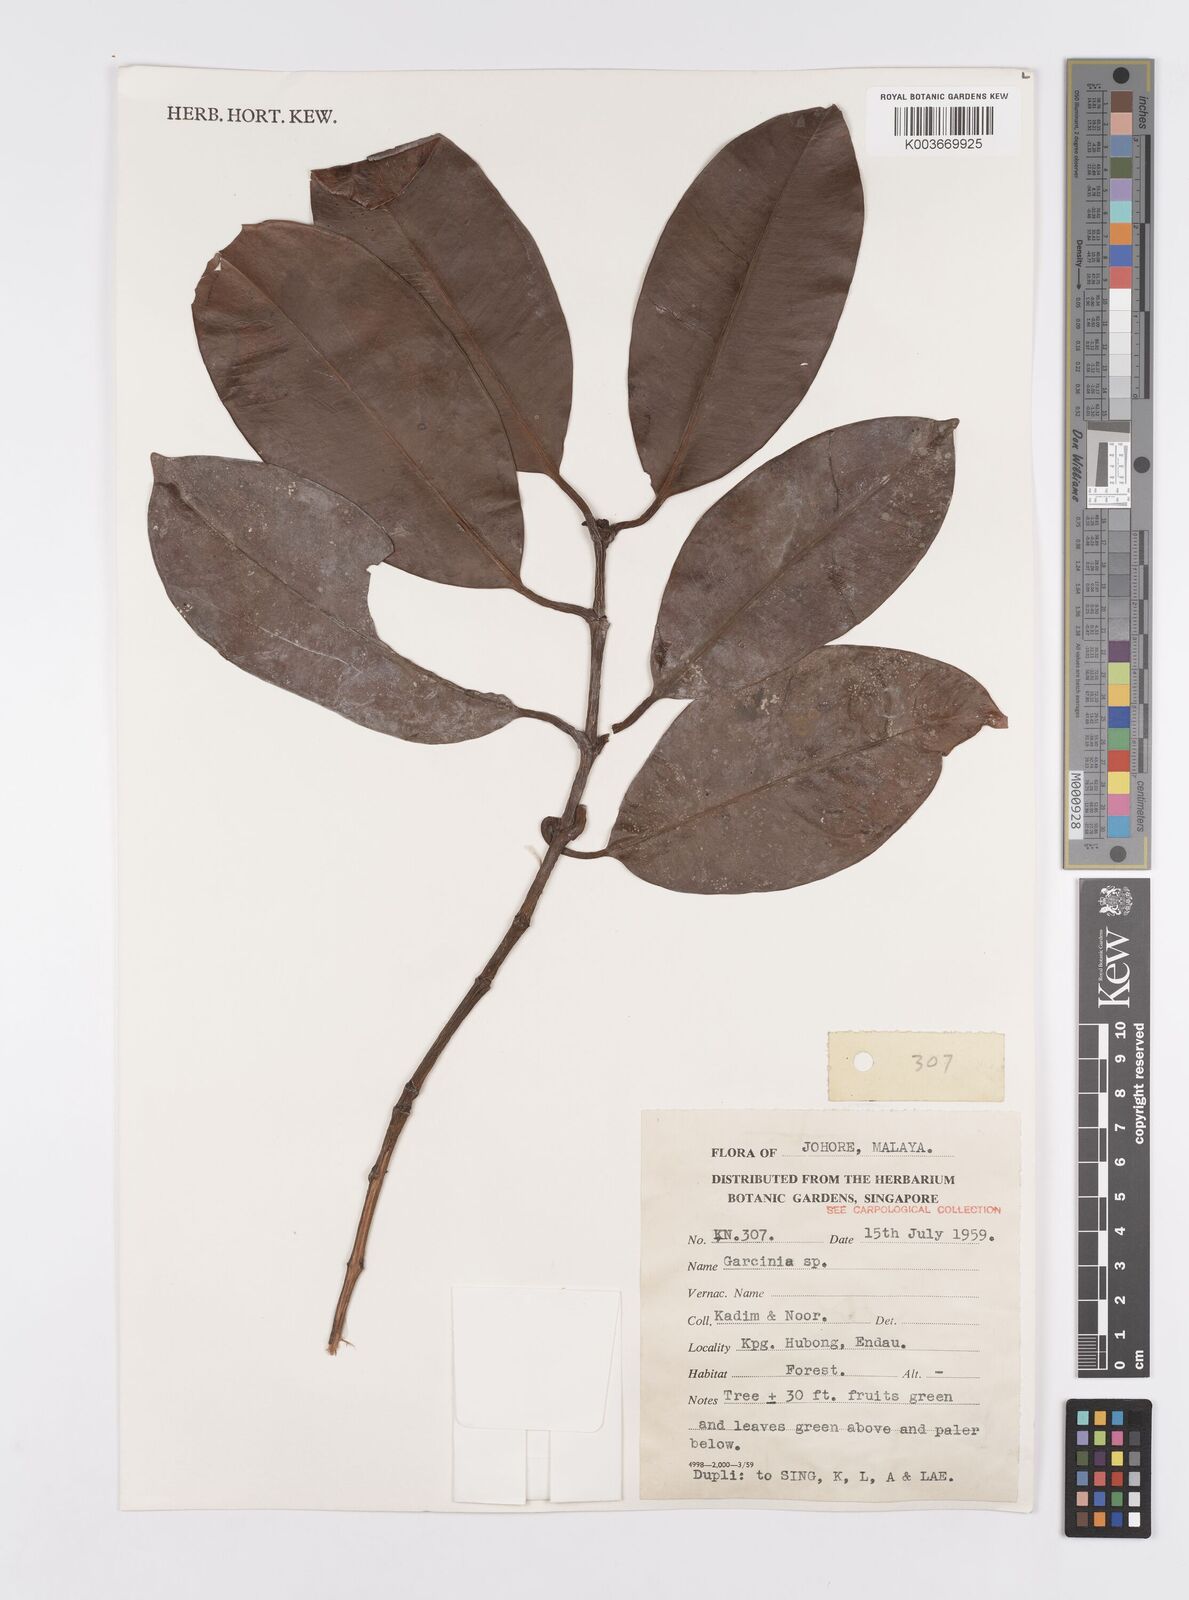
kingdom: Plantae
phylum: Tracheophyta
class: Magnoliopsida
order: Malpighiales
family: Clusiaceae
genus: Garcinia
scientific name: Garcinia
